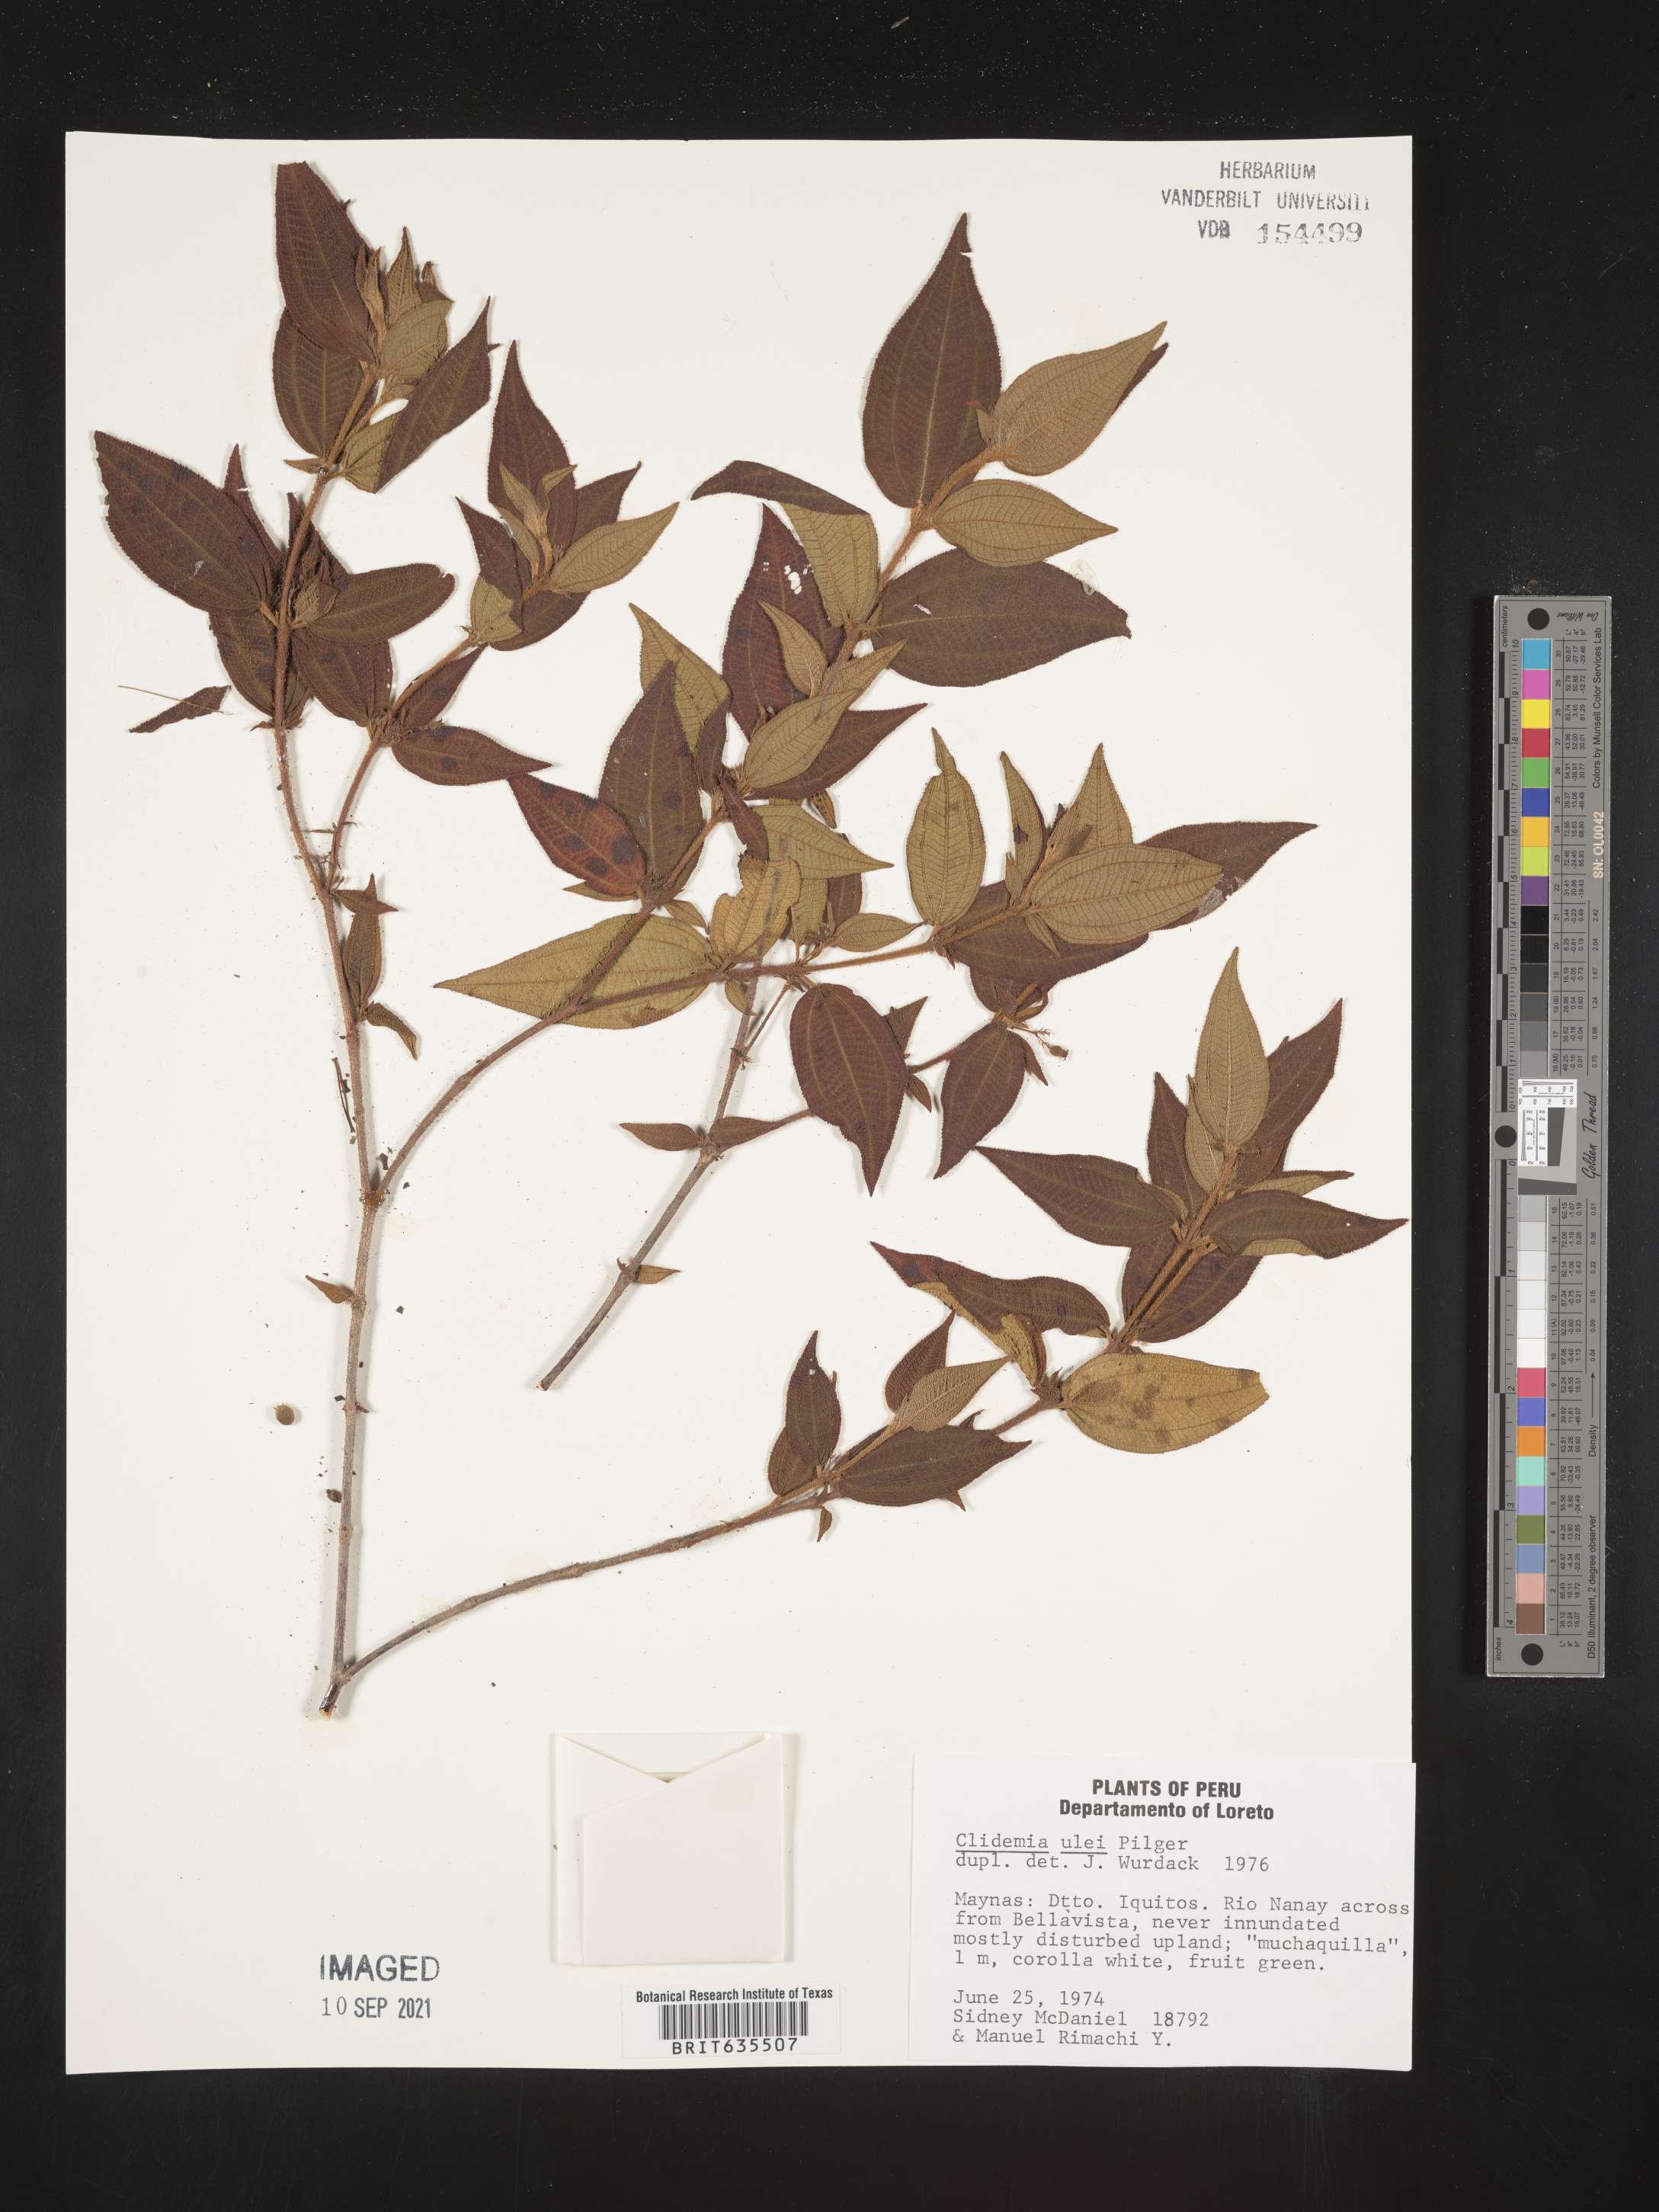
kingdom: Plantae
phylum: Tracheophyta
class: Magnoliopsida
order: Myrtales
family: Melastomataceae
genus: Miconia
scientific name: Miconia
